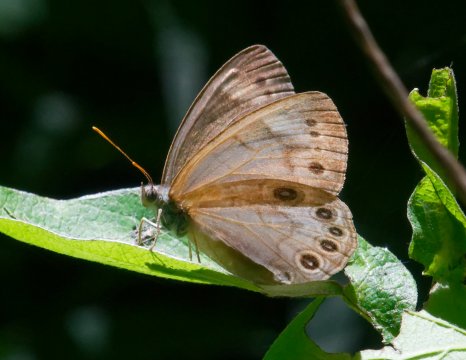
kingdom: Animalia
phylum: Arthropoda
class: Insecta
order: Lepidoptera
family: Nymphalidae
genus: Lethe
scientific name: Lethe eurydice
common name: Appalachian Eyed Brown
